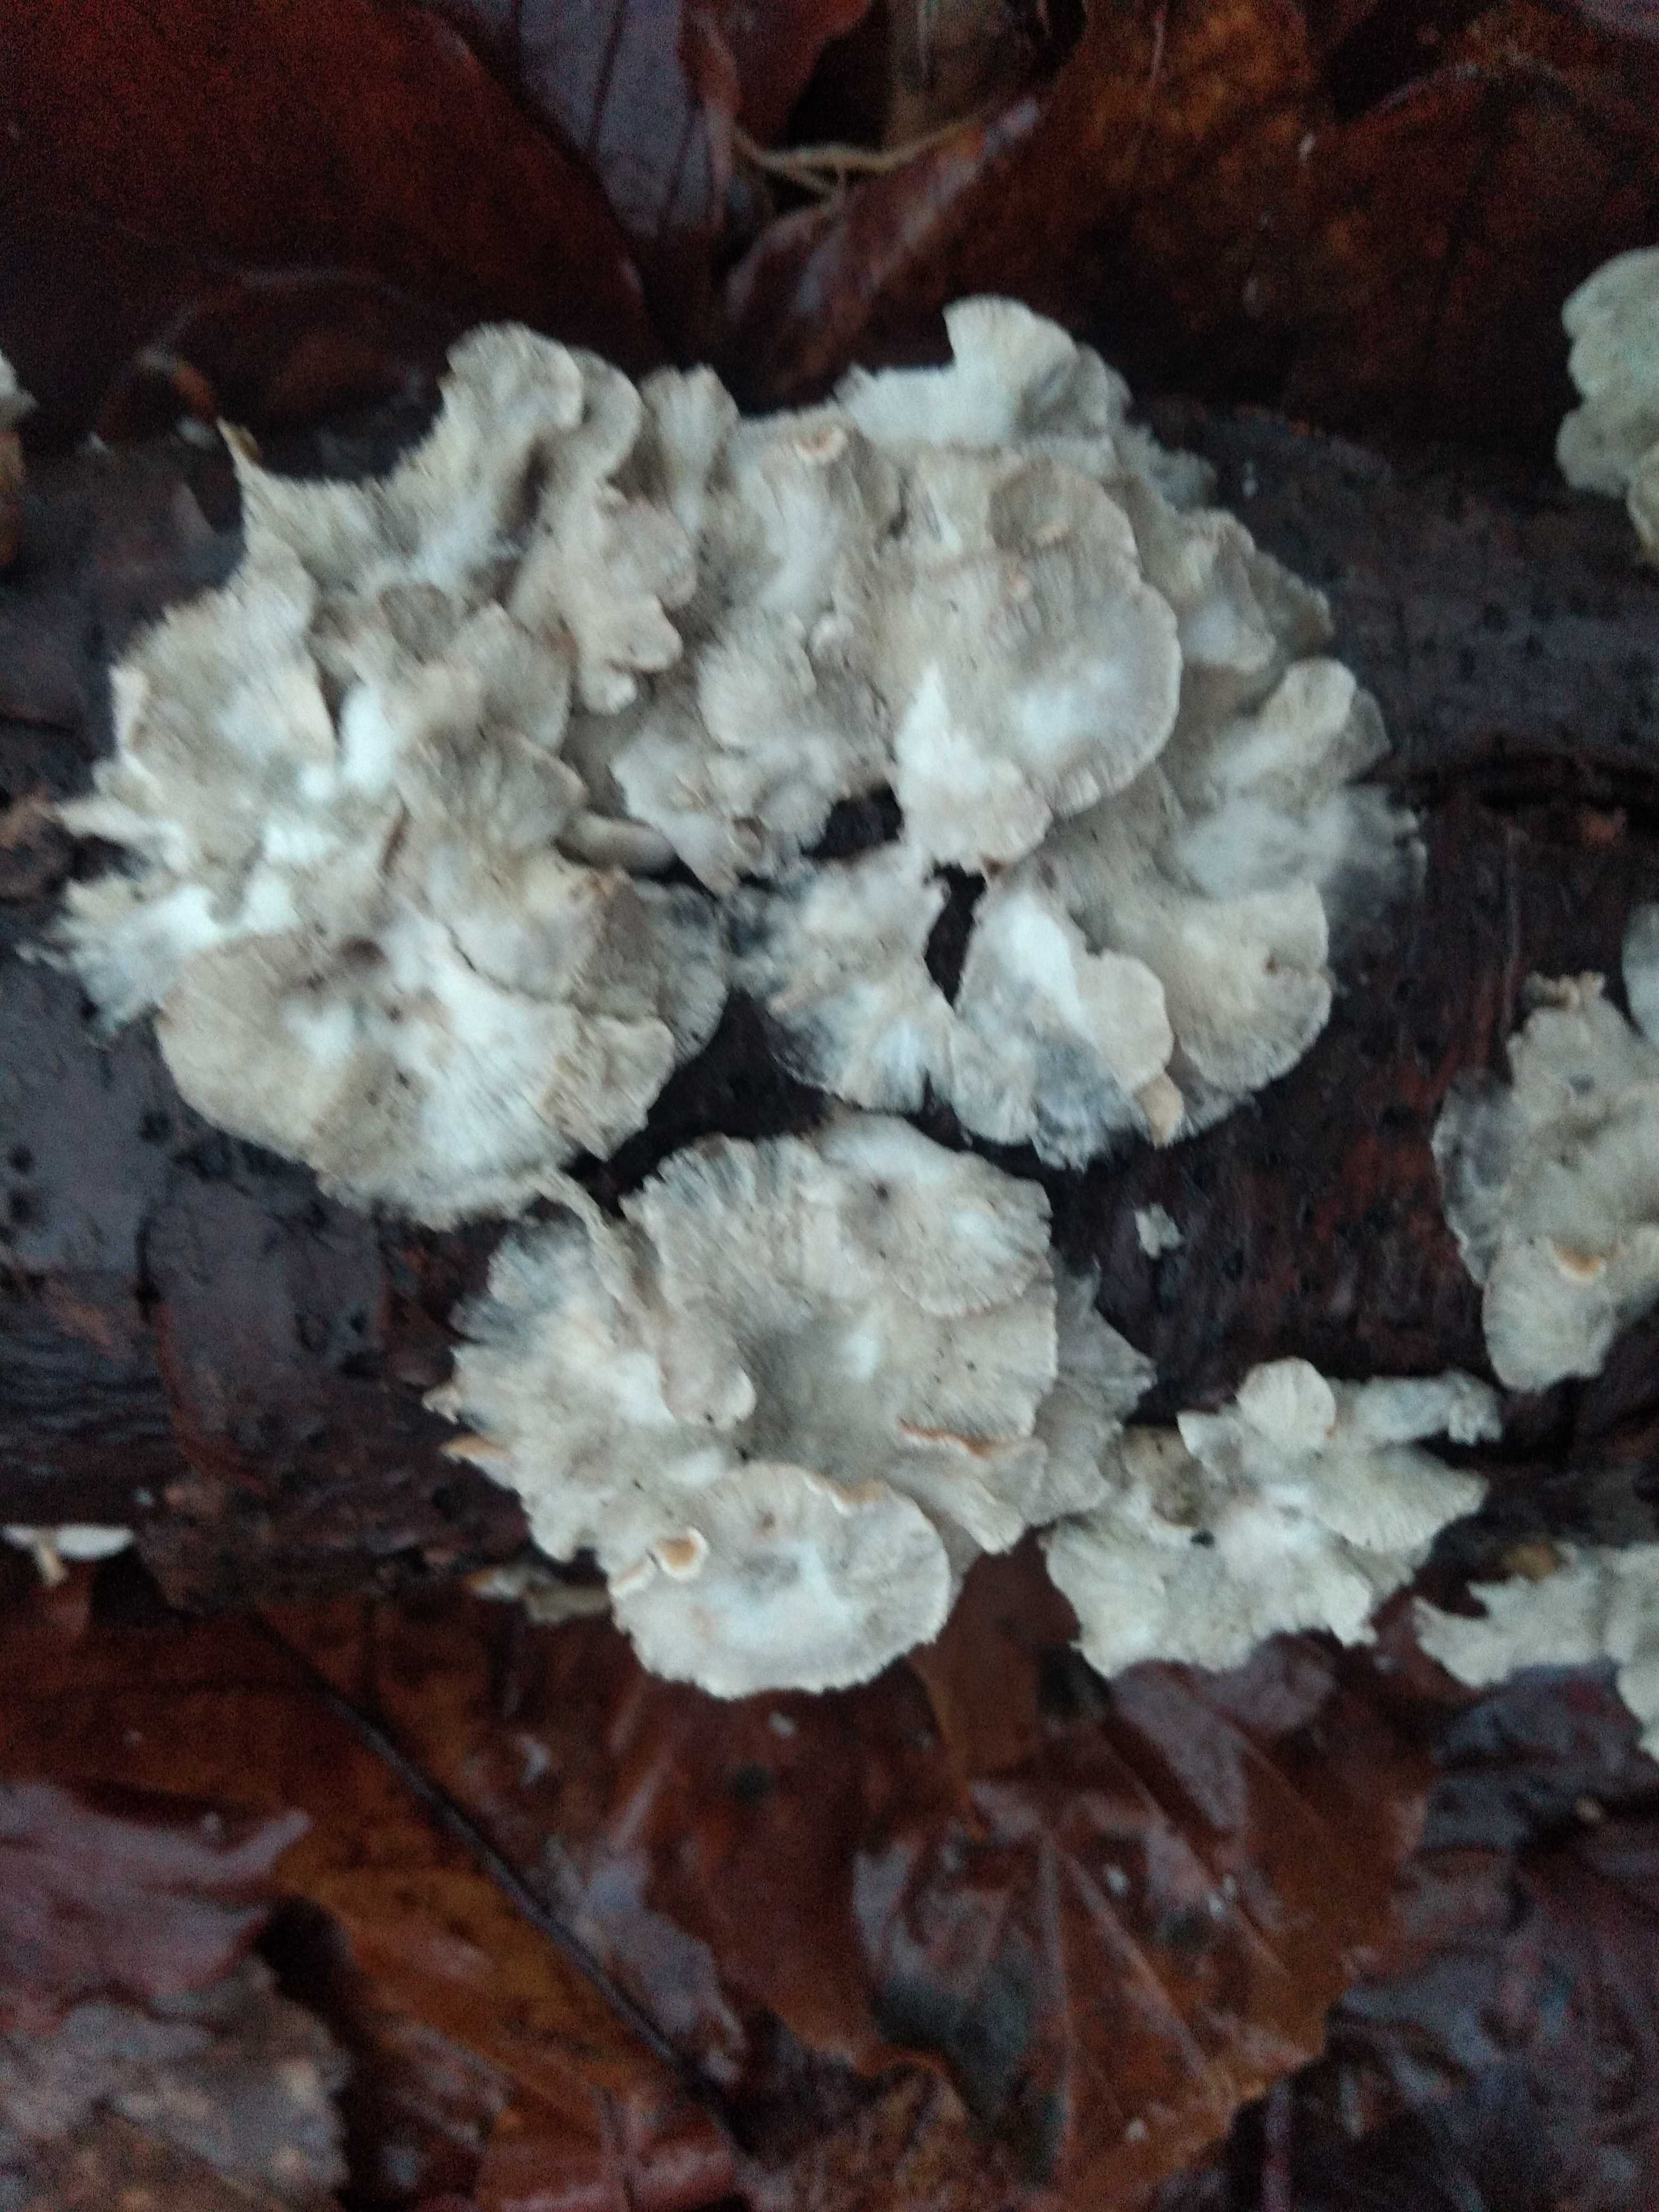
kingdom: Fungi
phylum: Basidiomycota
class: Agaricomycetes
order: Amylocorticiales
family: Amylocorticiaceae
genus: Plicaturopsis
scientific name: Plicaturopsis crispa
